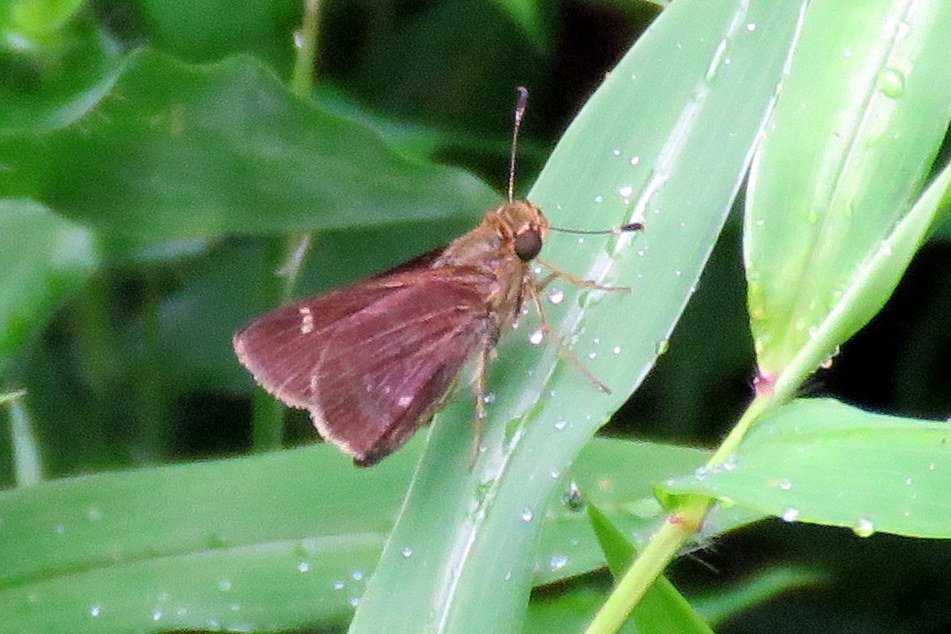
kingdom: Animalia
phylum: Arthropoda
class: Insecta
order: Lepidoptera
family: Hesperiidae
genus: Vernia
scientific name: Vernia verna
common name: Little Glassywing
